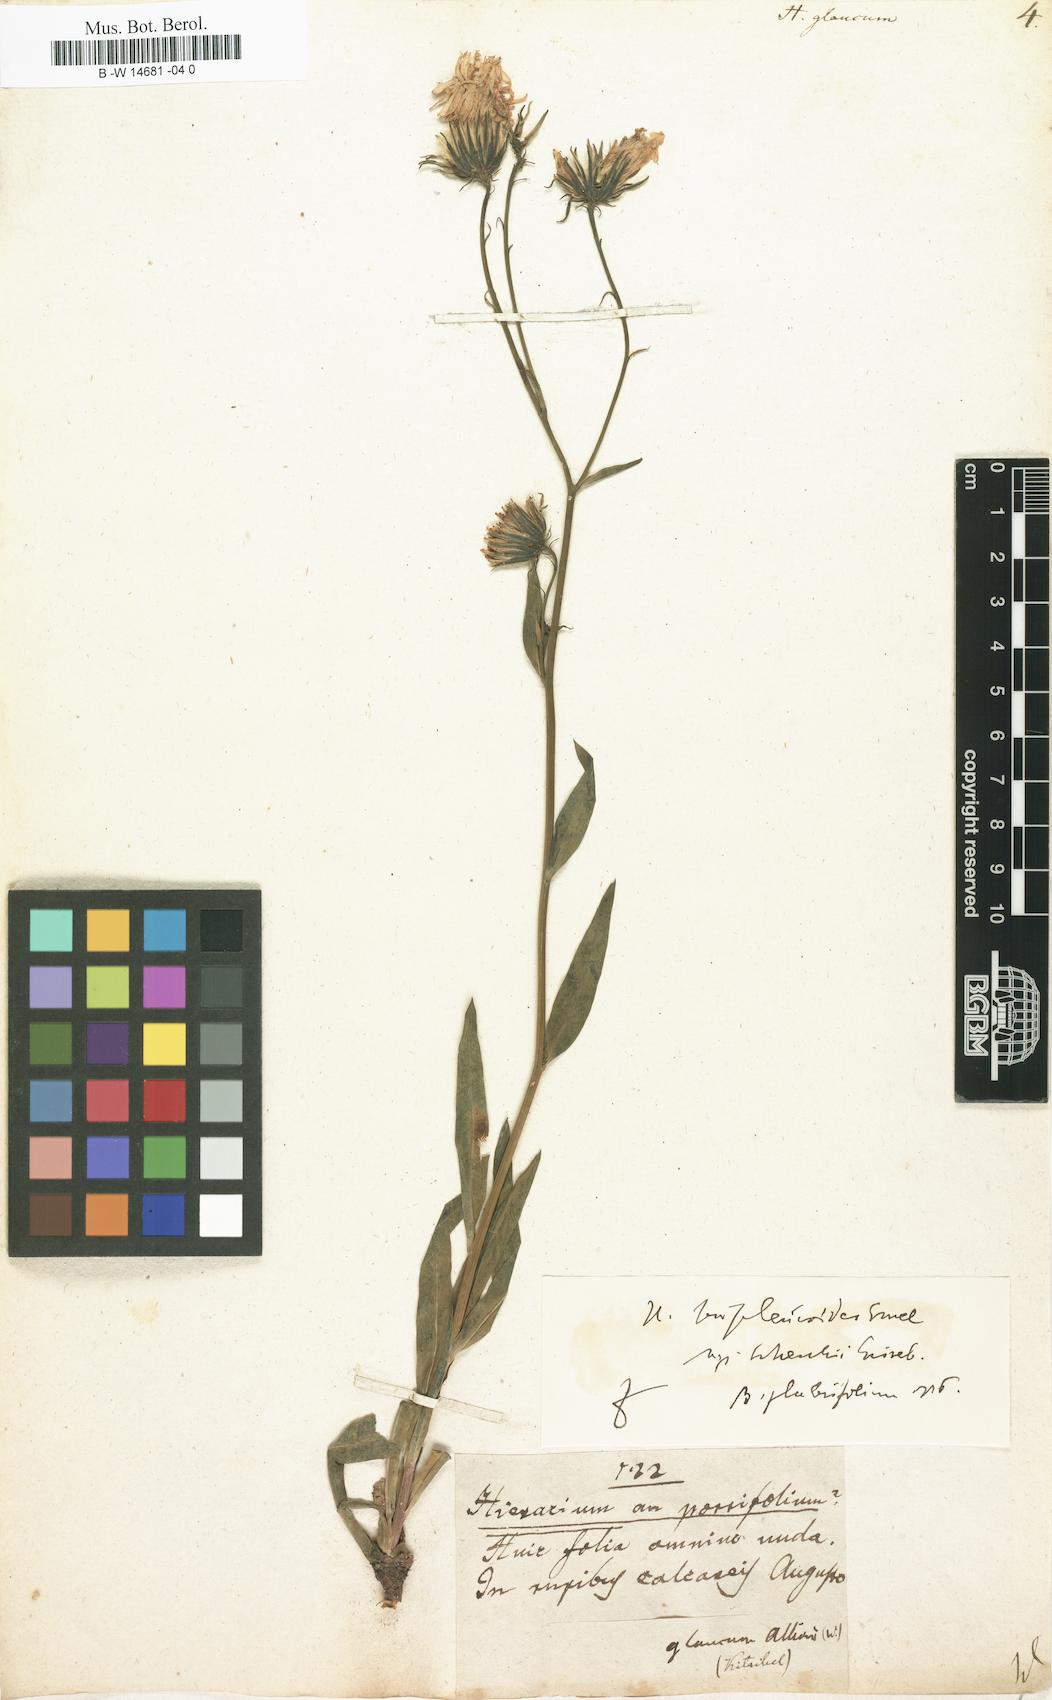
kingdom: Plantae
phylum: Tracheophyta
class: Magnoliopsida
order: Asterales
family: Asteraceae
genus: Hieracium
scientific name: Hieracium glaucum
